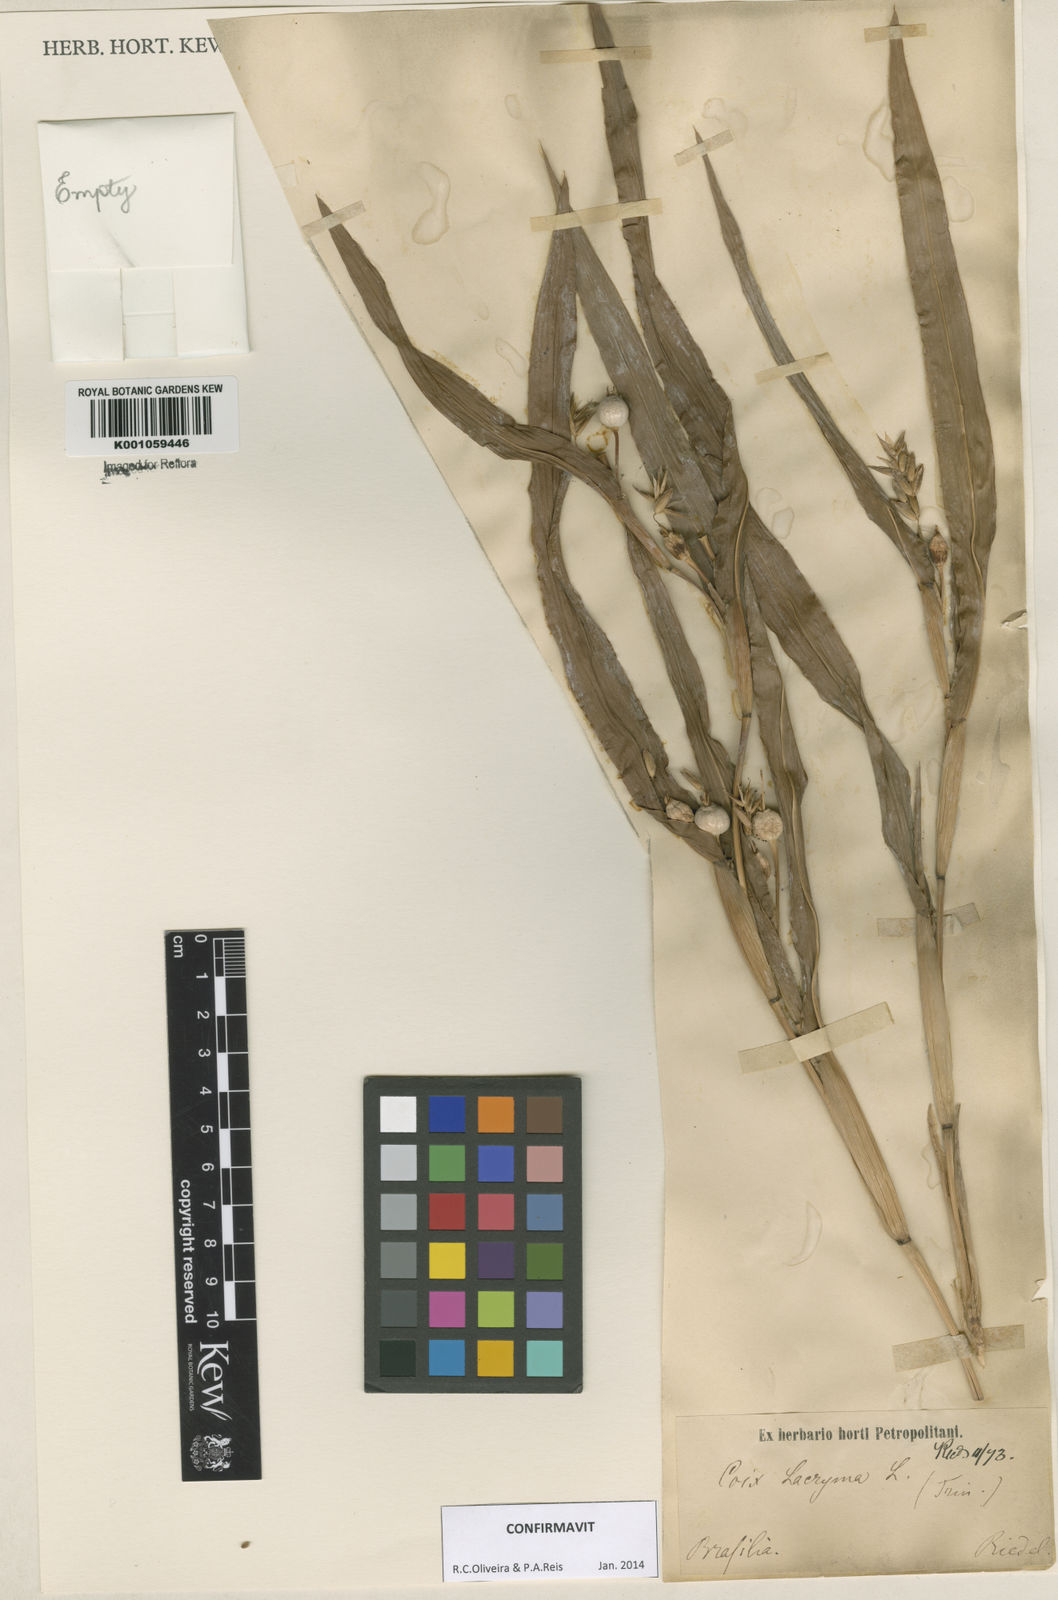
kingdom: Plantae
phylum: Tracheophyta
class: Liliopsida
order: Poales
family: Poaceae
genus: Coix
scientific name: Coix lacryma-jobi
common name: Job's tears
